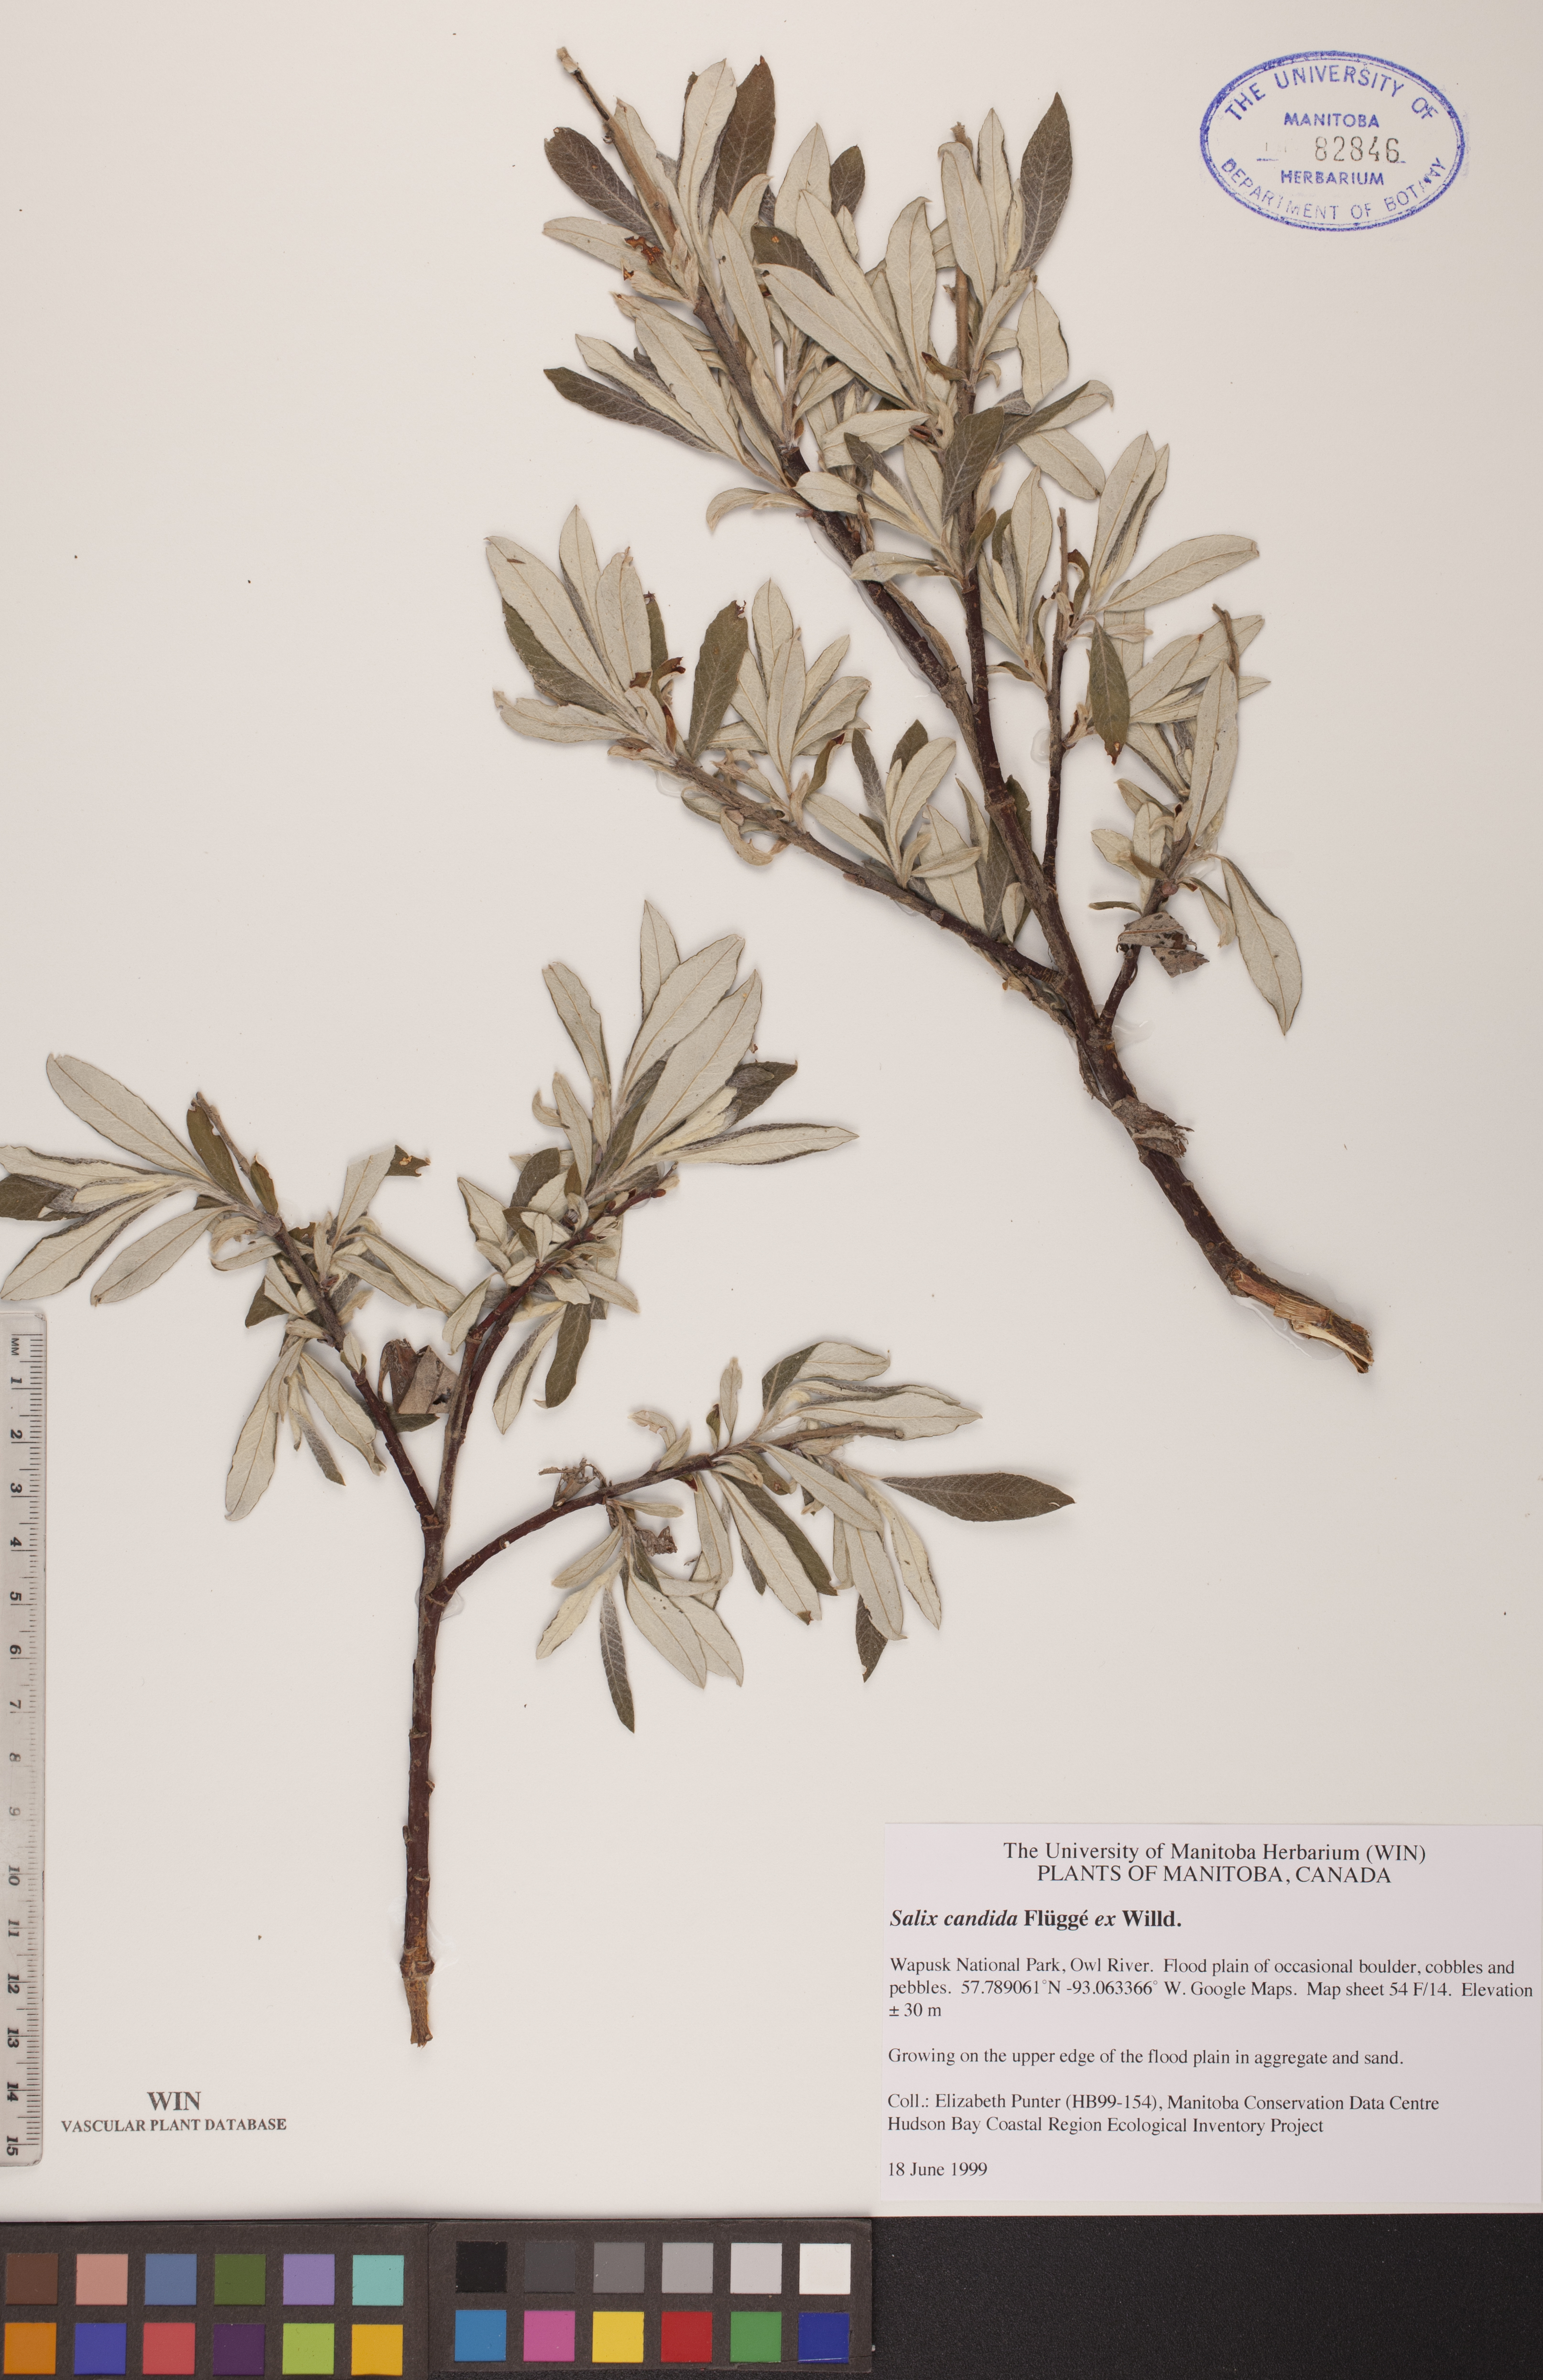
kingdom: Plantae
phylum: Tracheophyta
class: Magnoliopsida
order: Malpighiales
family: Salicaceae
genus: Salix
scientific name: Salix candida
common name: Hoary willow
